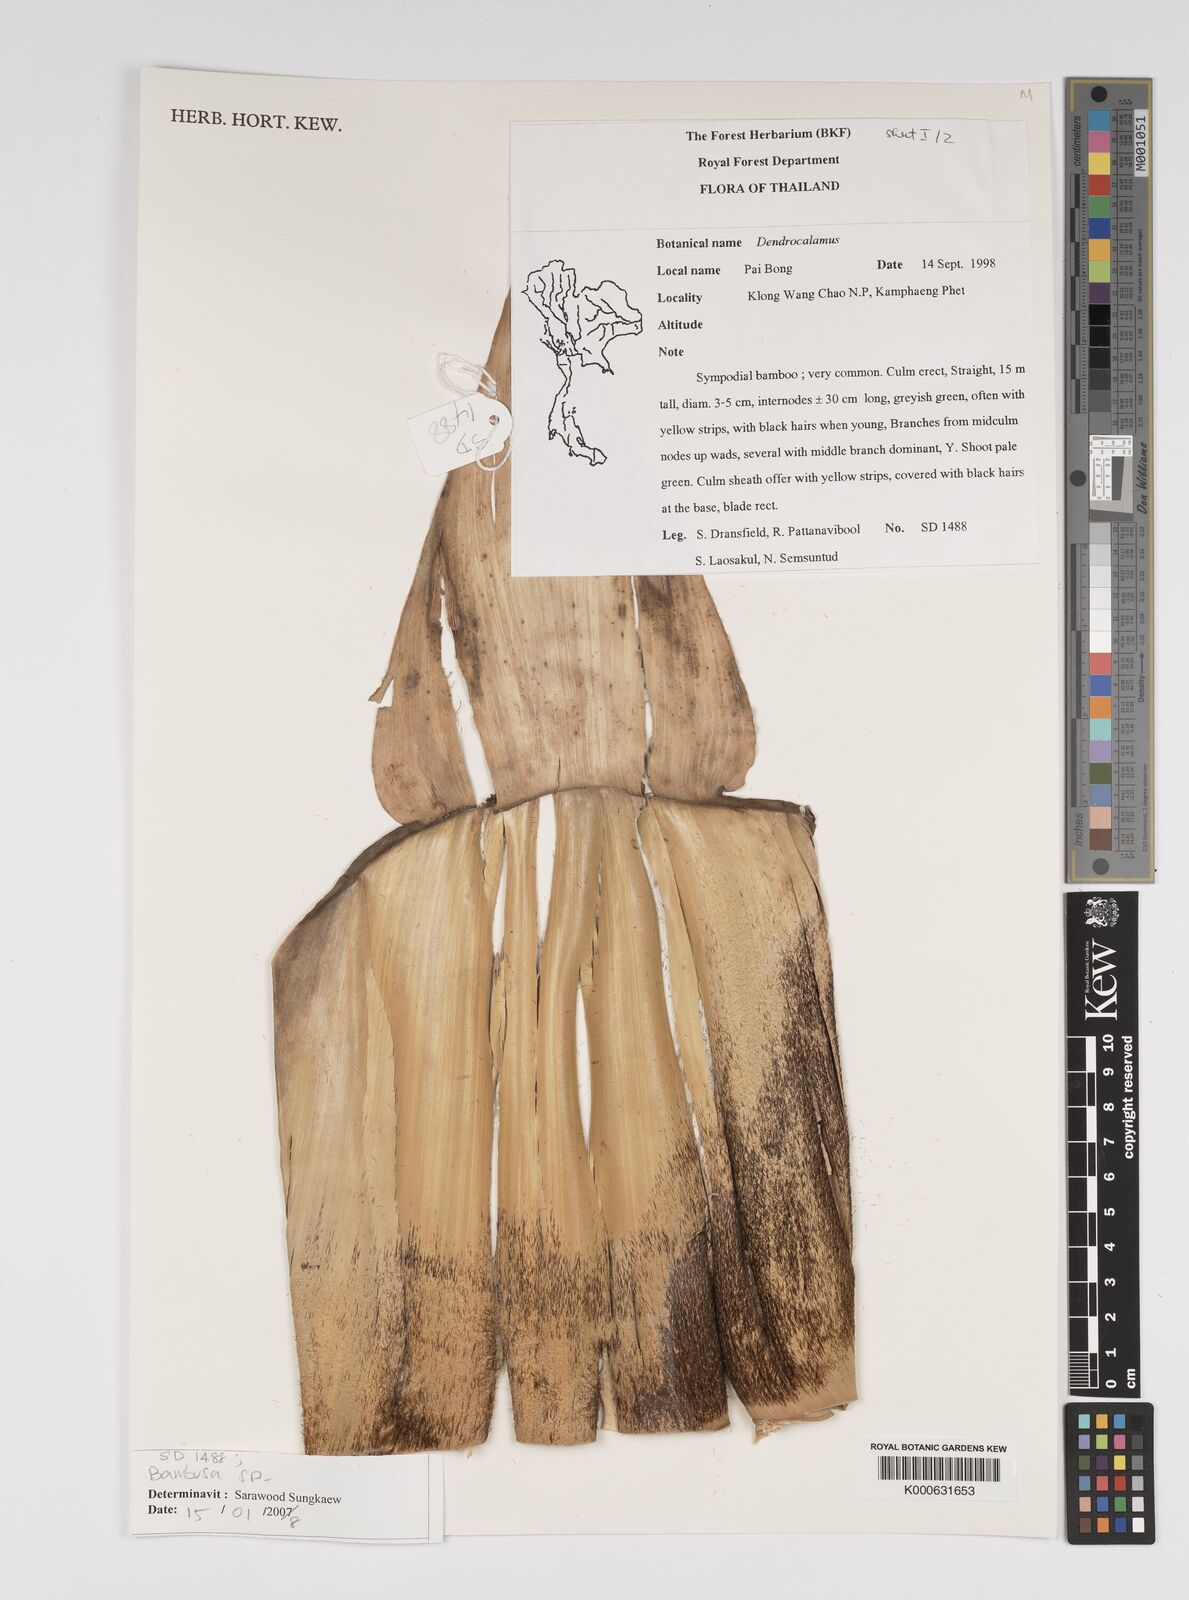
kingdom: Plantae
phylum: Tracheophyta
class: Liliopsida
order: Poales
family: Poaceae
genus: Bambusa
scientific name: Bambusa
